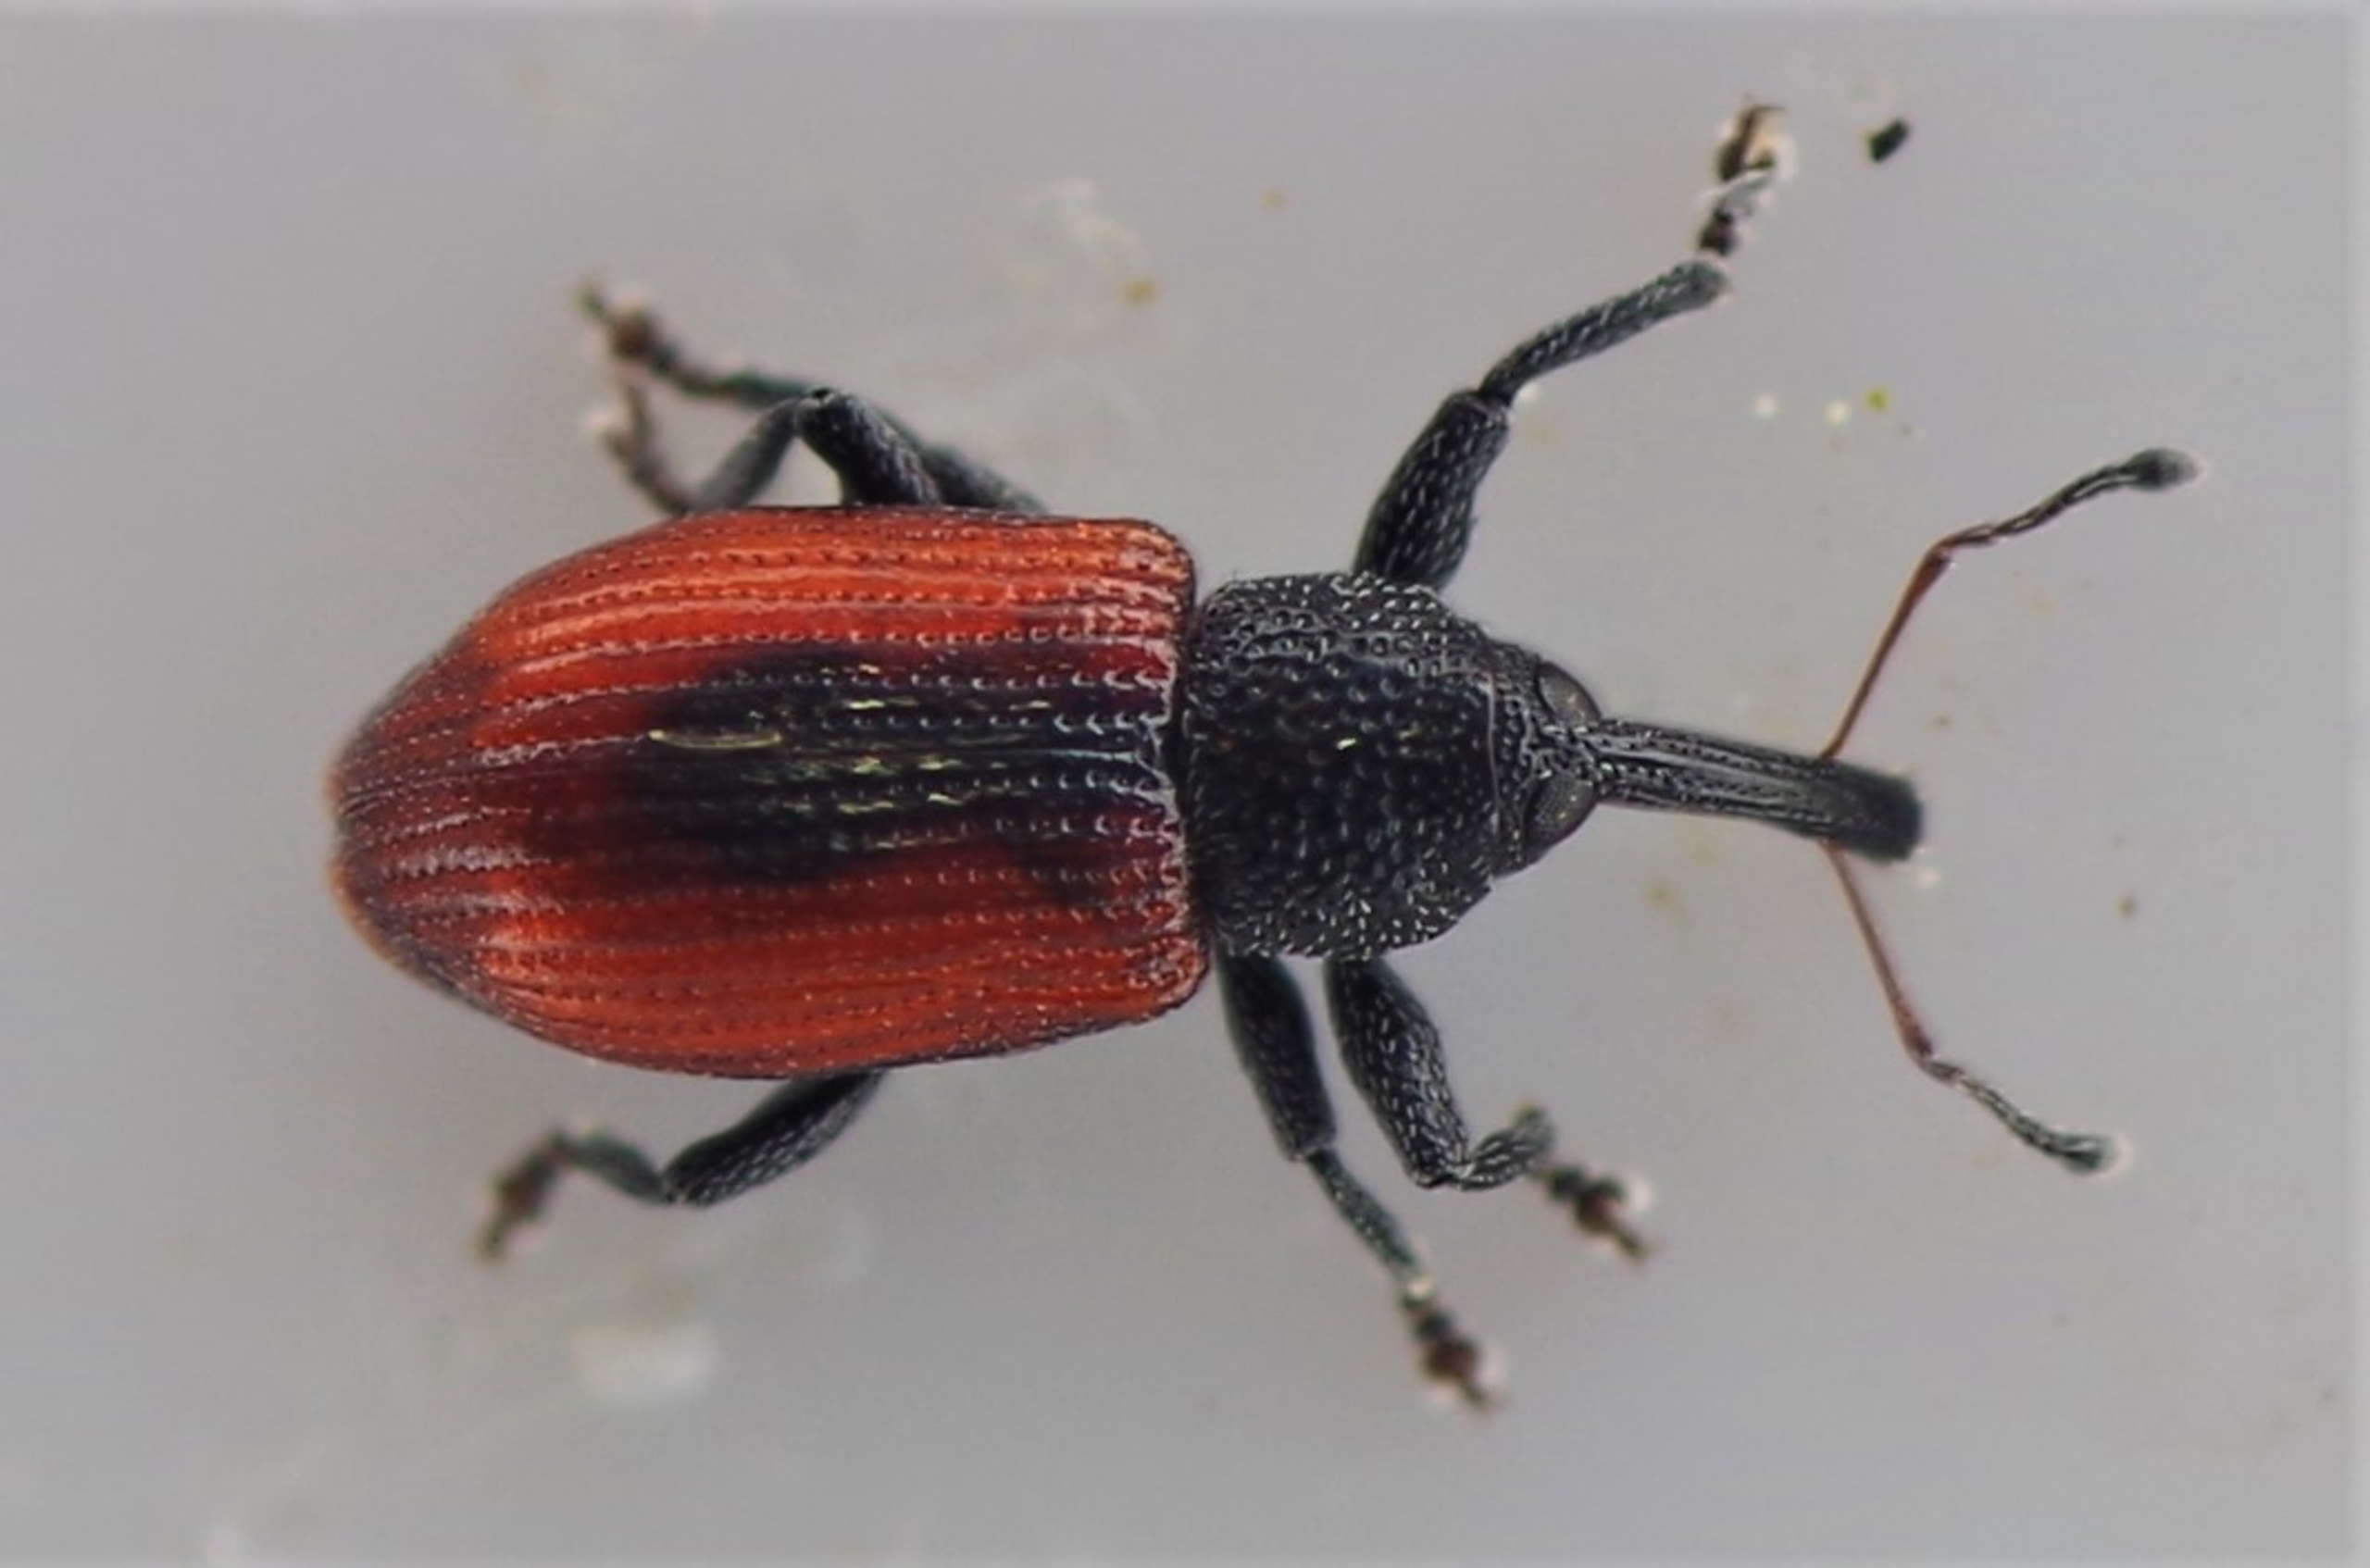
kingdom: Animalia
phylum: Arthropoda
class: Insecta
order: Coleoptera
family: Curculionidae
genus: Dorytomus
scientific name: Dorytomus dorsalis
